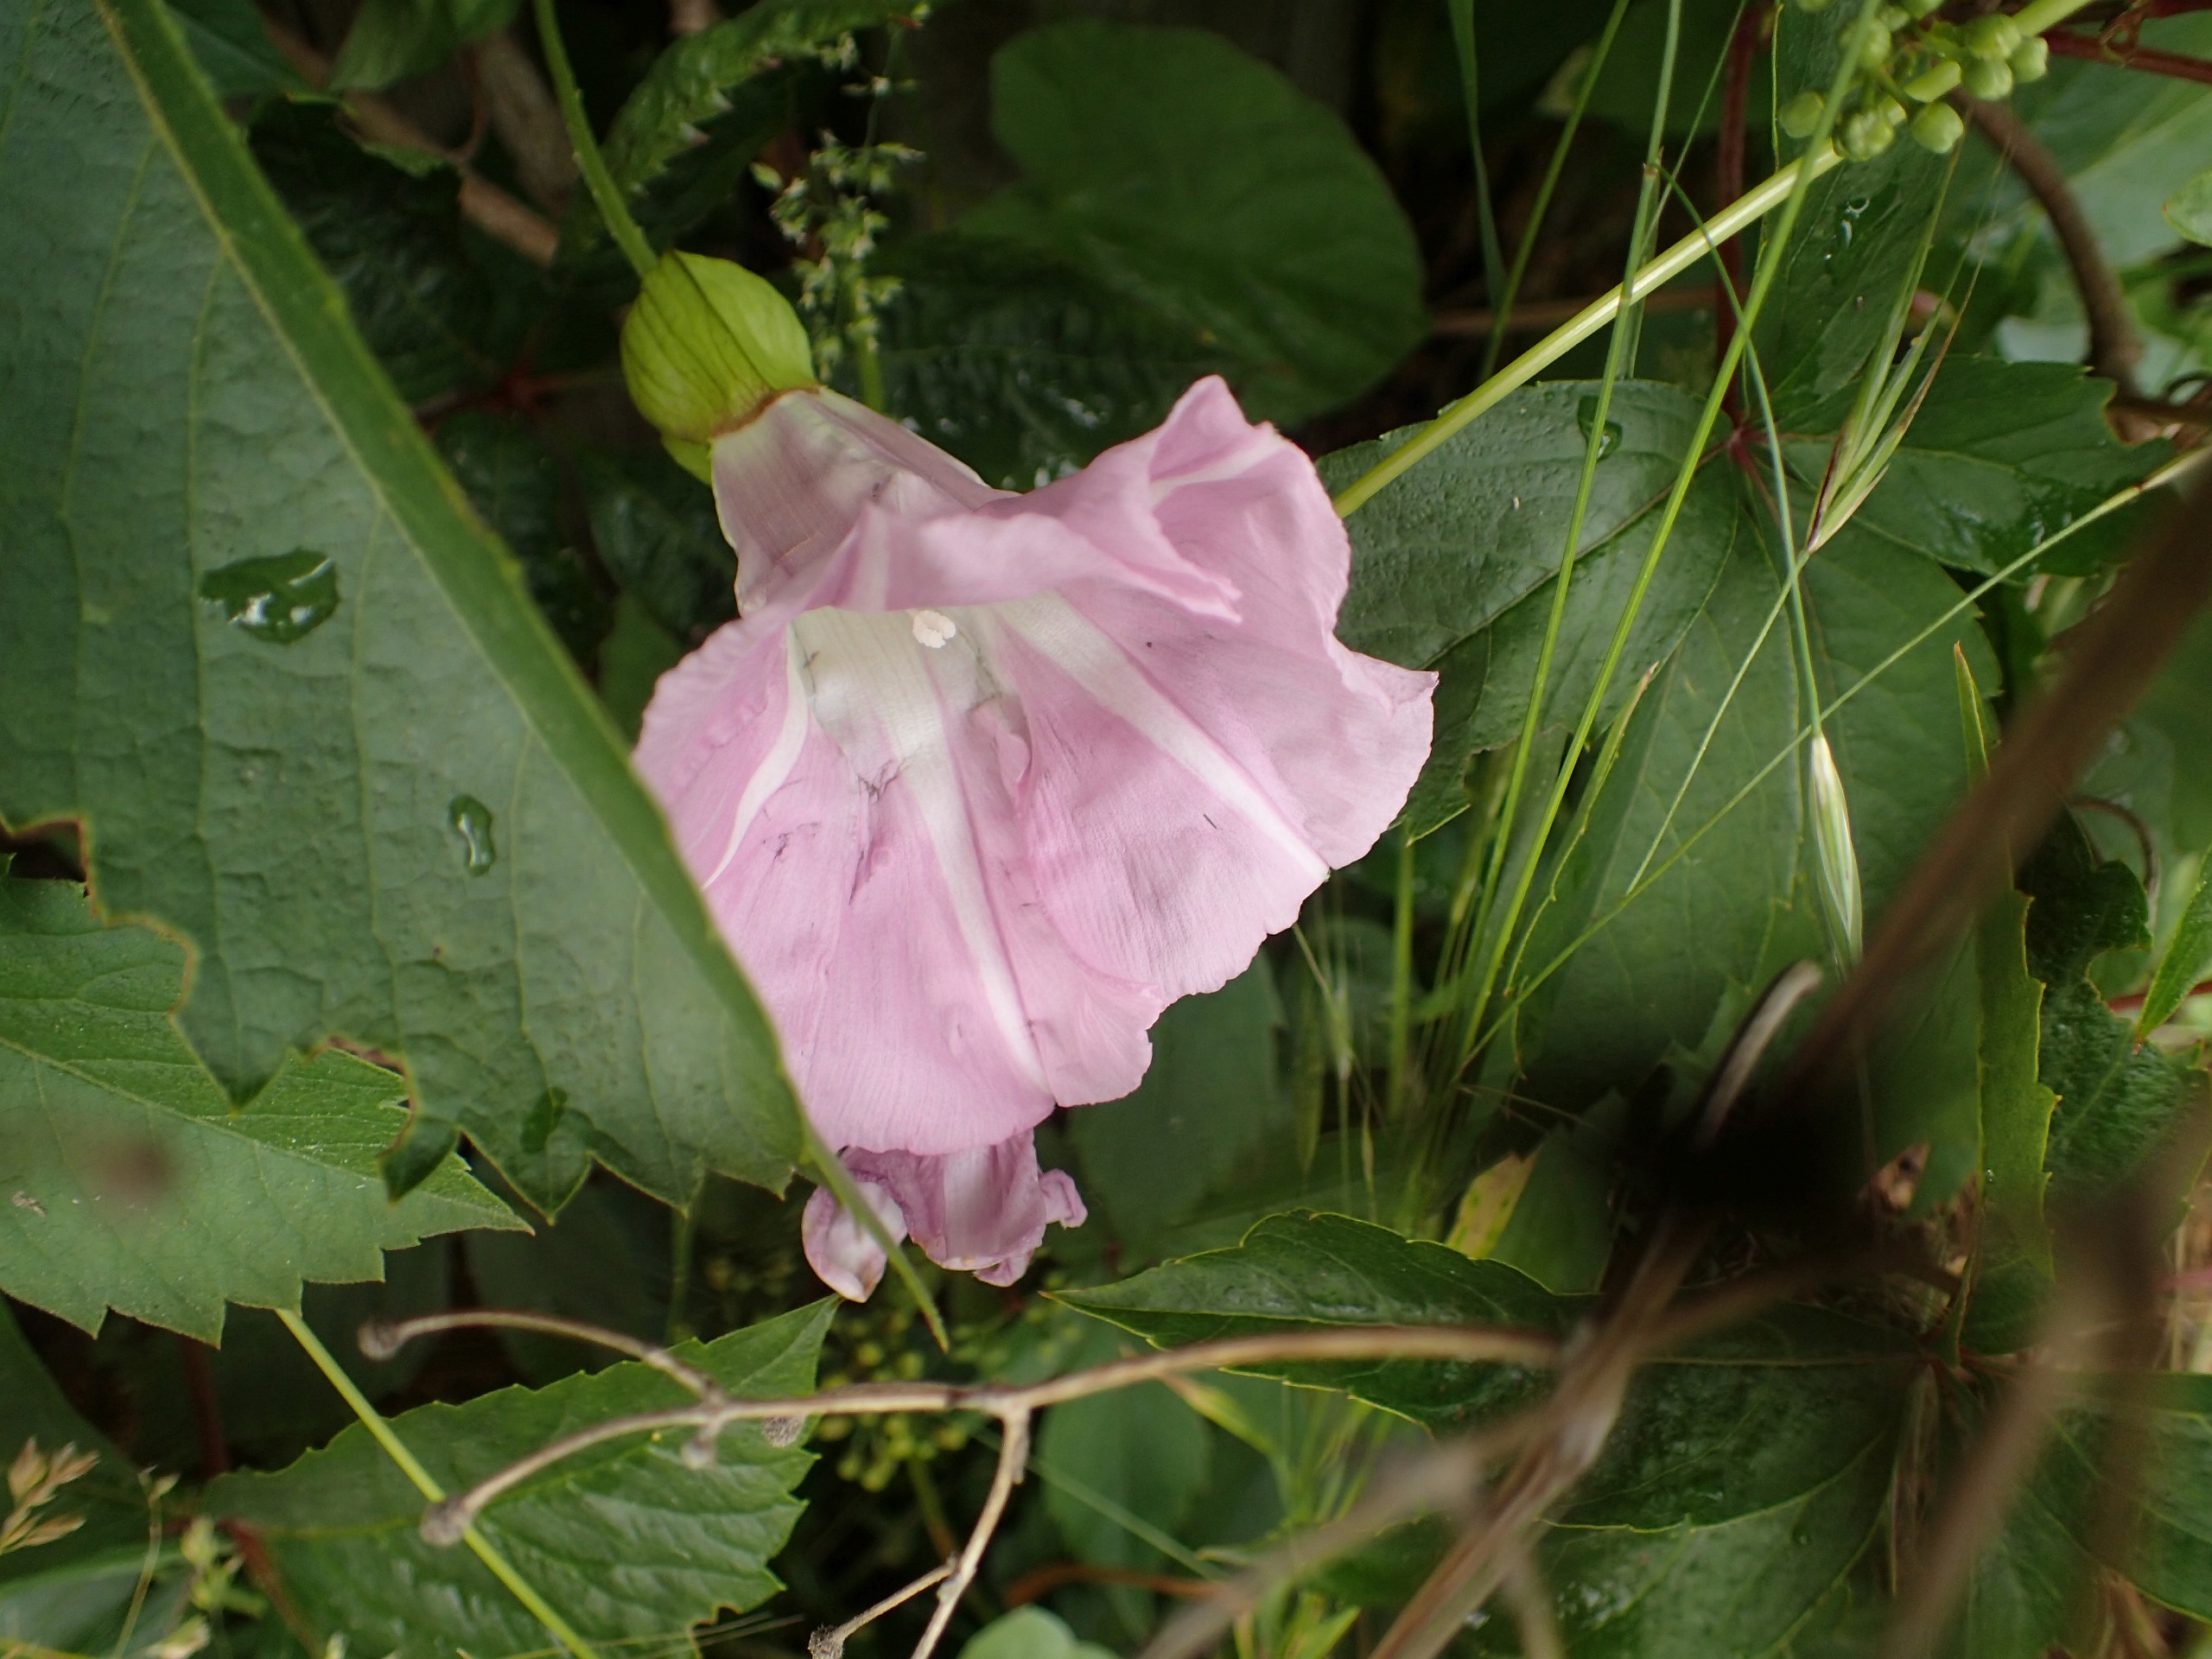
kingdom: Plantae
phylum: Tracheophyta
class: Magnoliopsida
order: Solanales
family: Convolvulaceae
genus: Calystegia
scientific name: Calystegia pulchra
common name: Have-snerle
